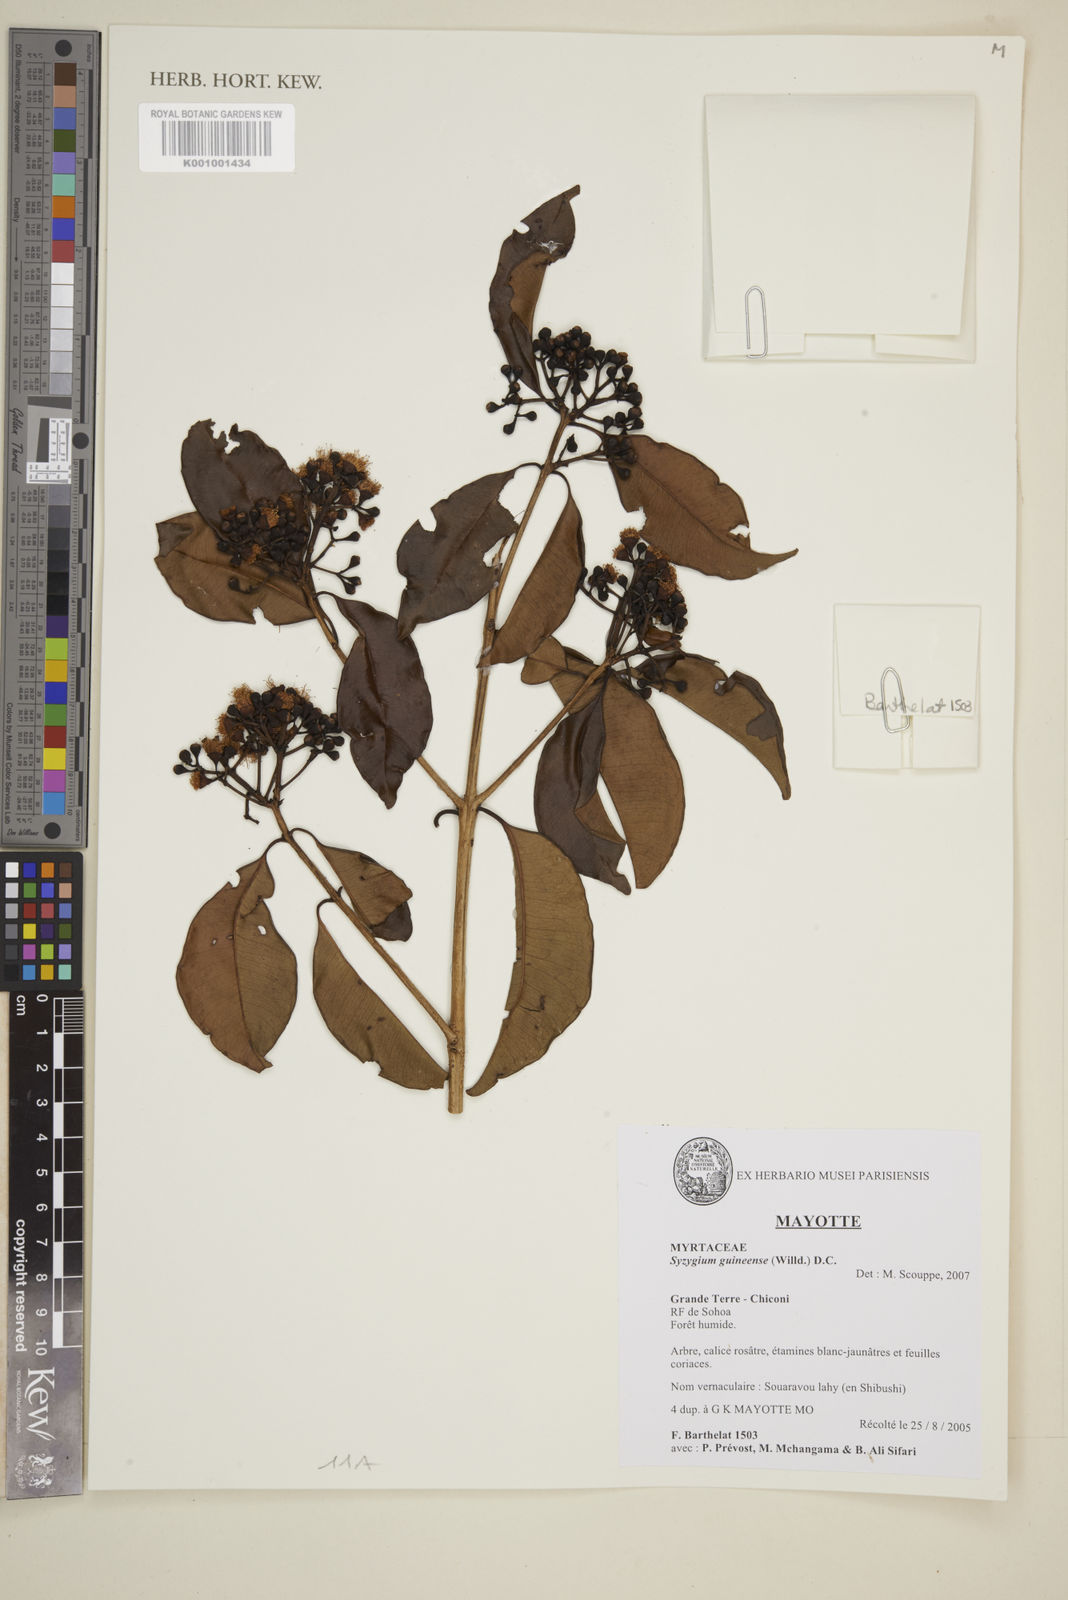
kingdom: Plantae
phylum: Tracheophyta
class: Magnoliopsida
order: Myrtales
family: Myrtaceae
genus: Syzygium
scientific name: Syzygium guineense
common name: Water-pear
